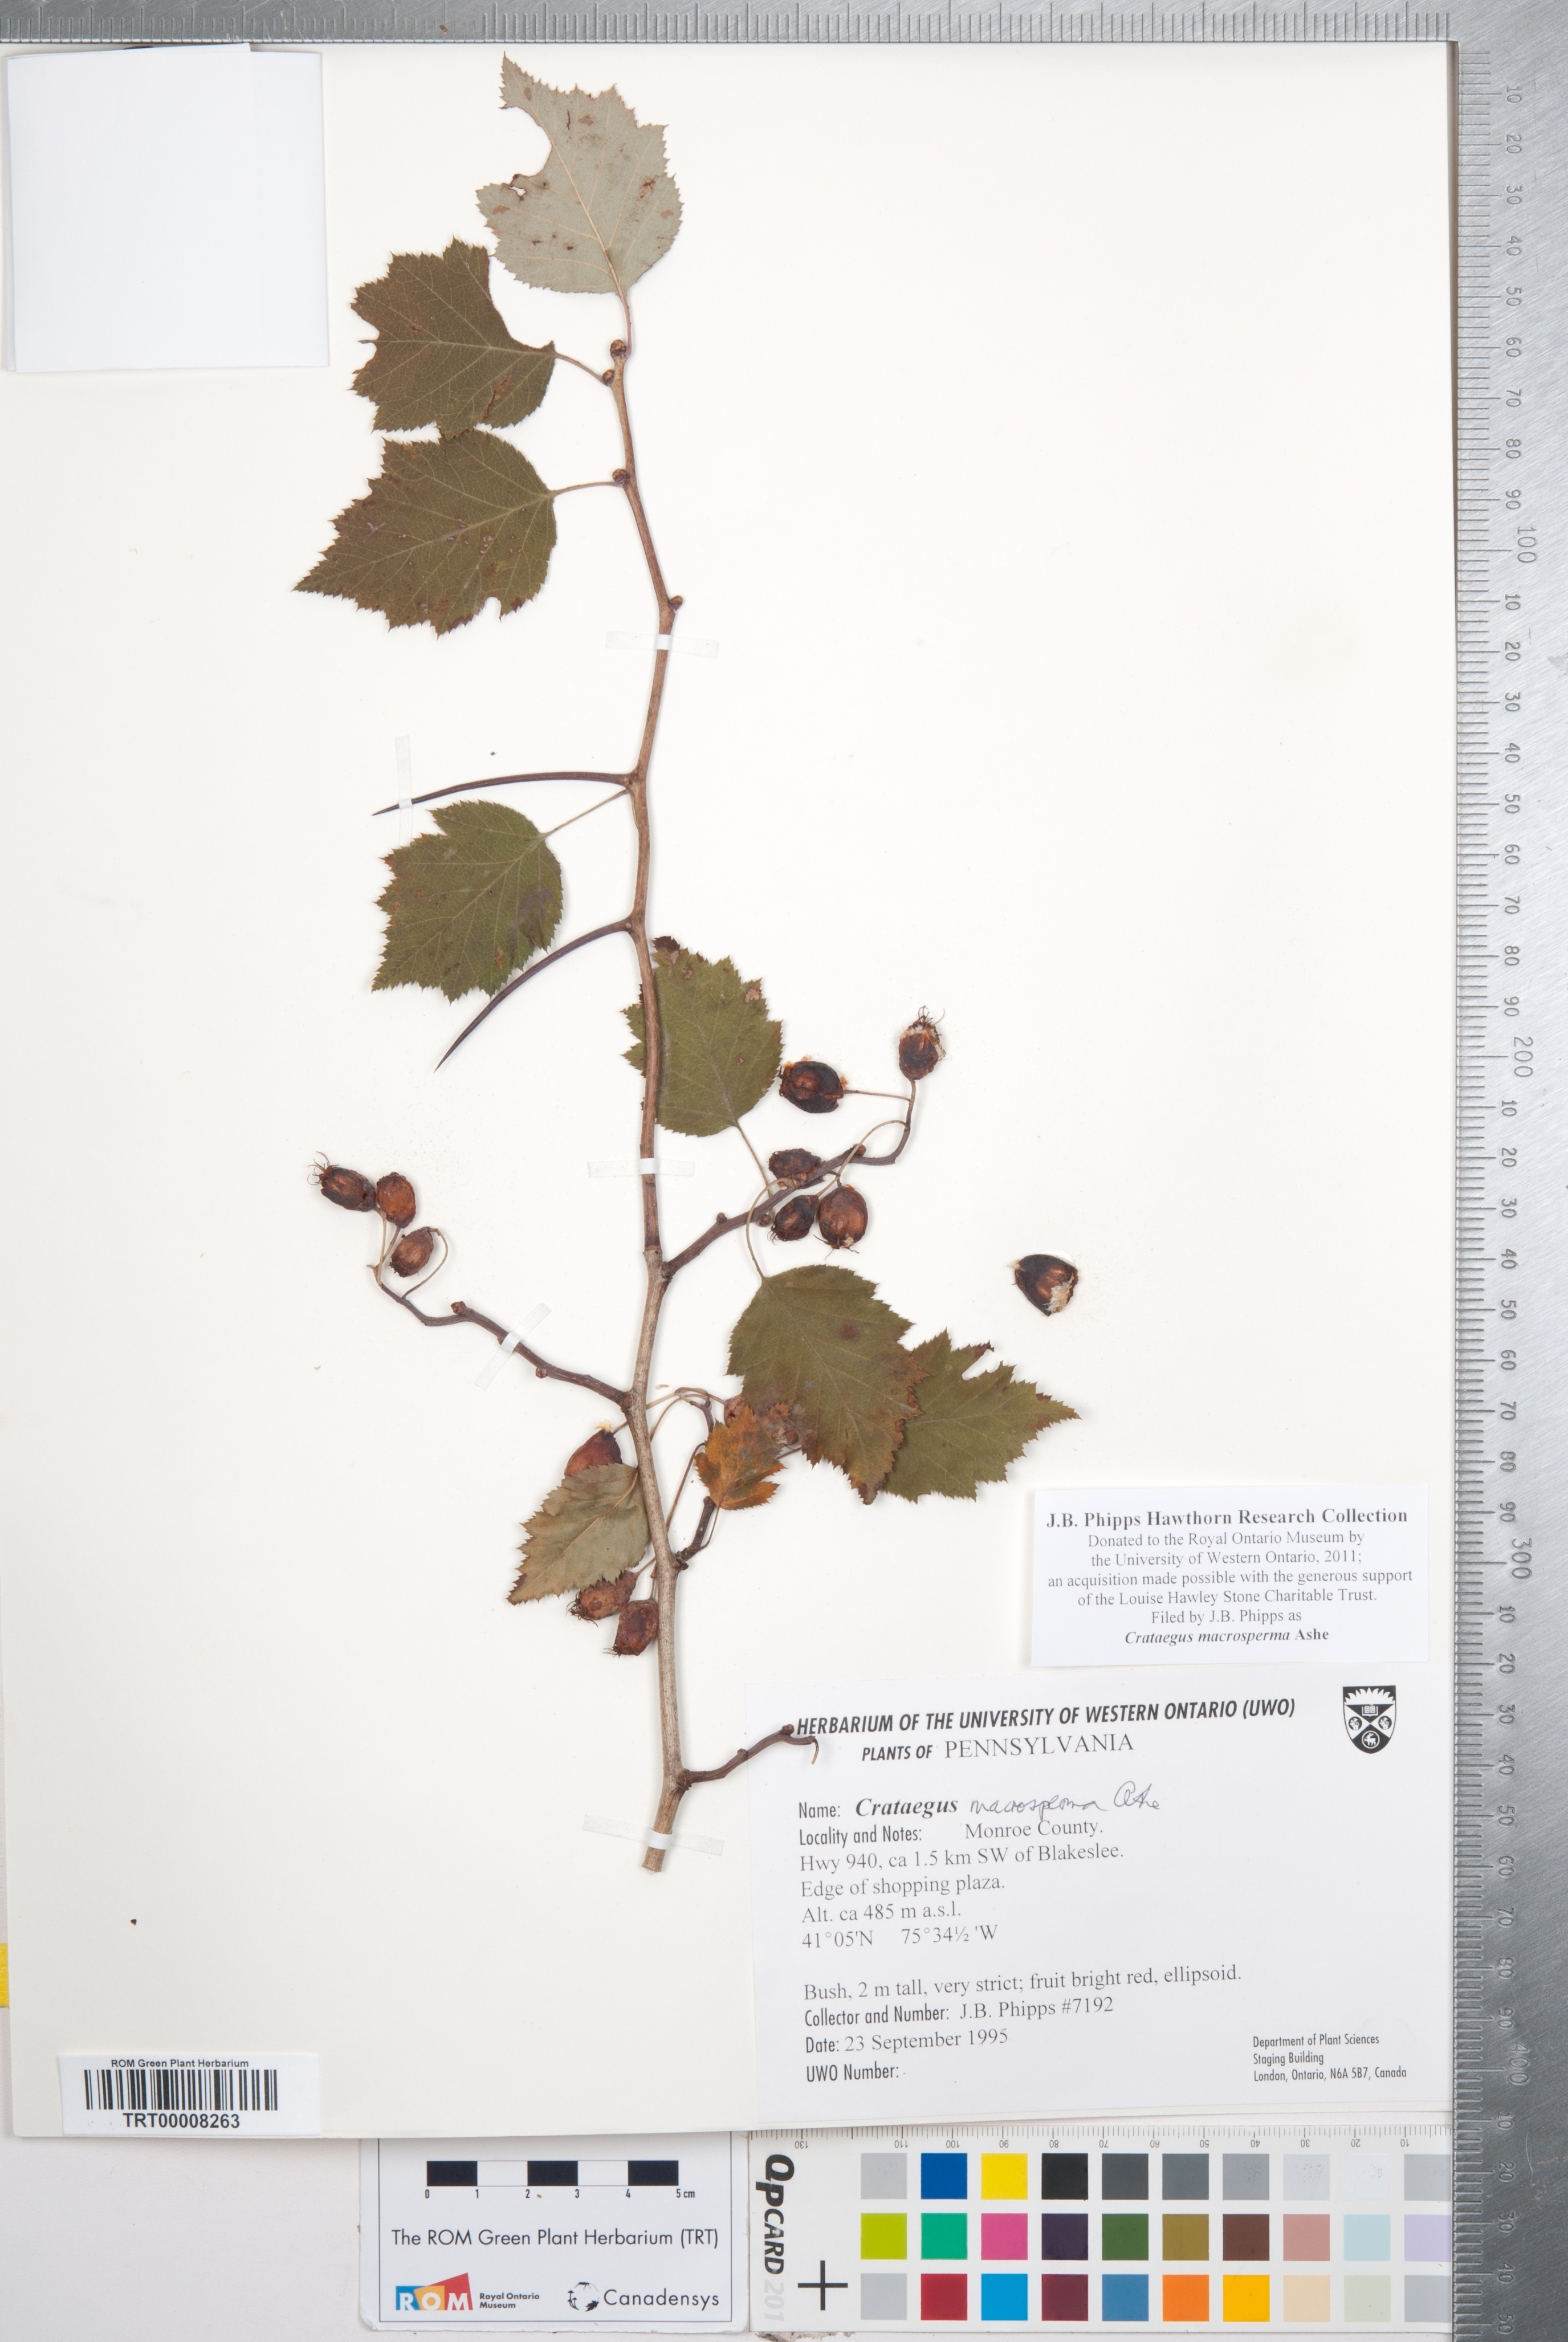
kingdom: Plantae
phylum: Tracheophyta
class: Magnoliopsida
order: Rosales
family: Rosaceae
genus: Crataegus
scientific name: Crataegus macrosperma
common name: Variable hawthorn
